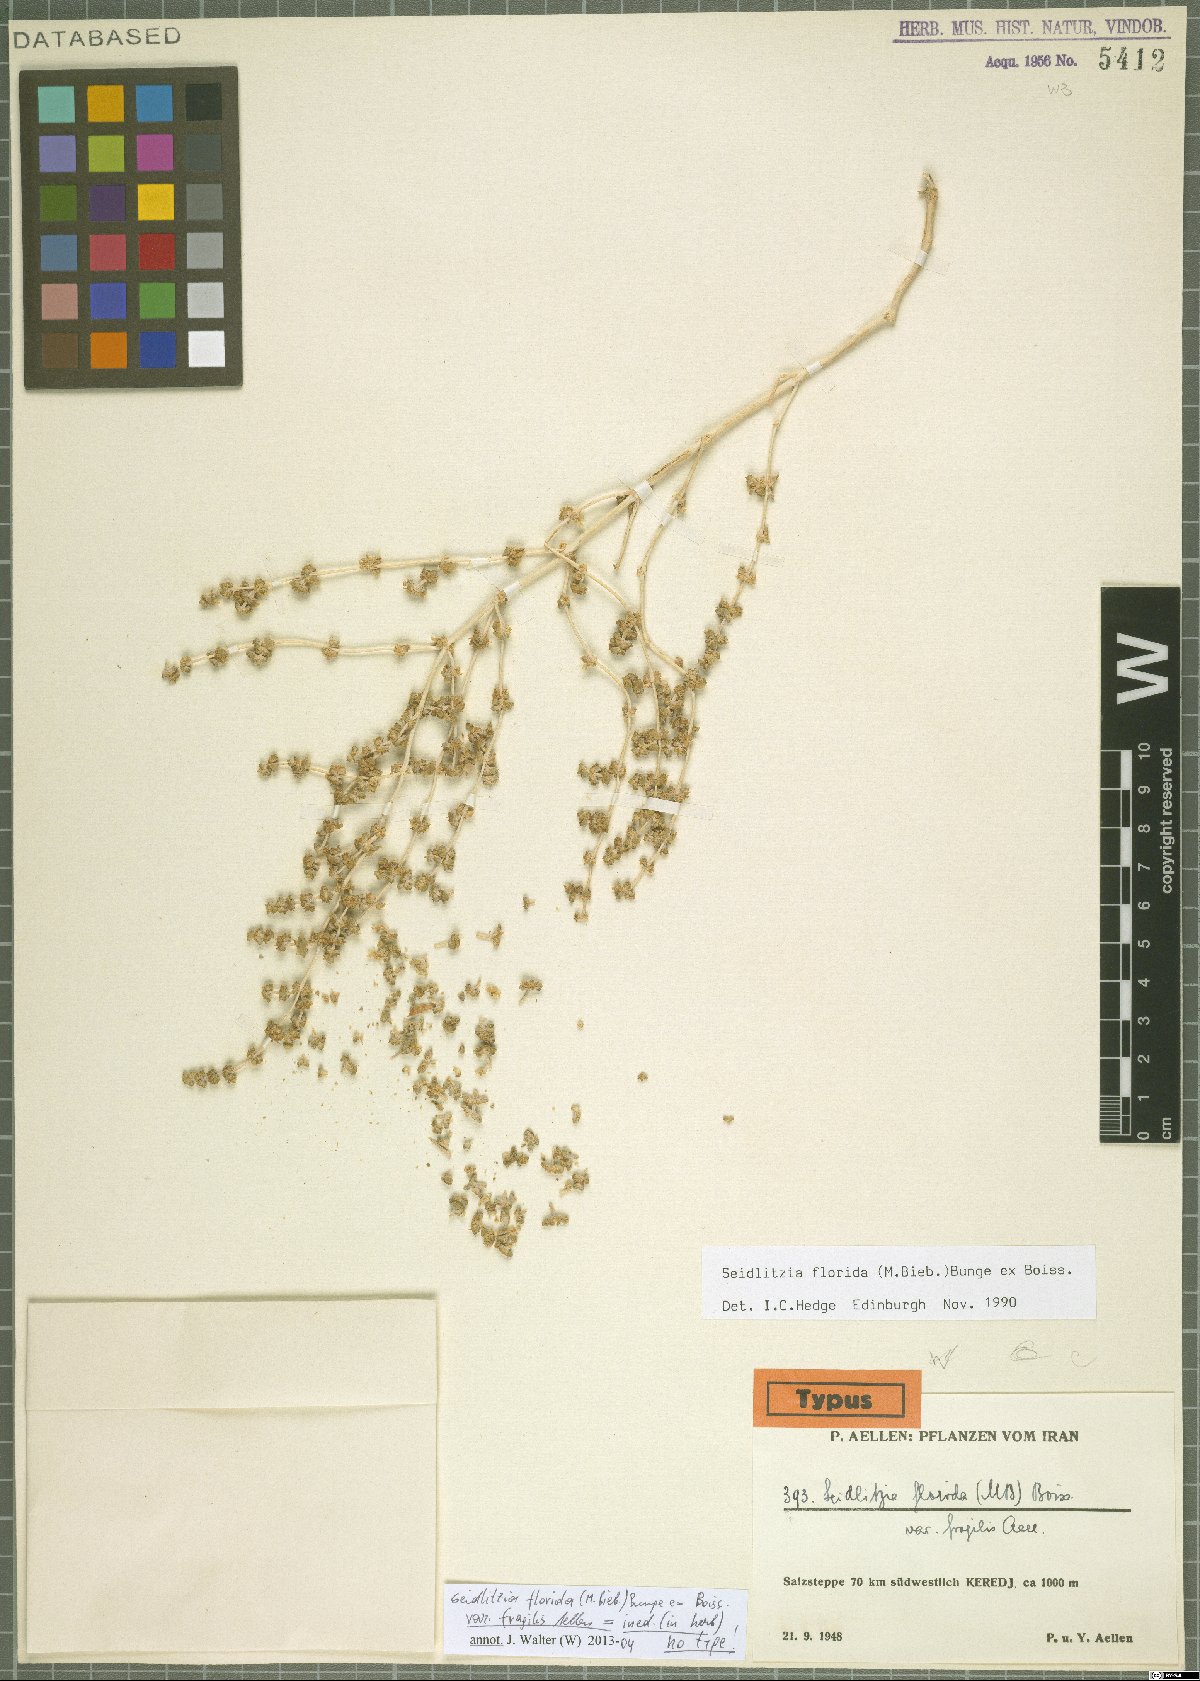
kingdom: Plantae
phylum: Tracheophyta
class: Magnoliopsida
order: Caryophyllales
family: Amaranthaceae
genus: Soda
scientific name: Soda florida
